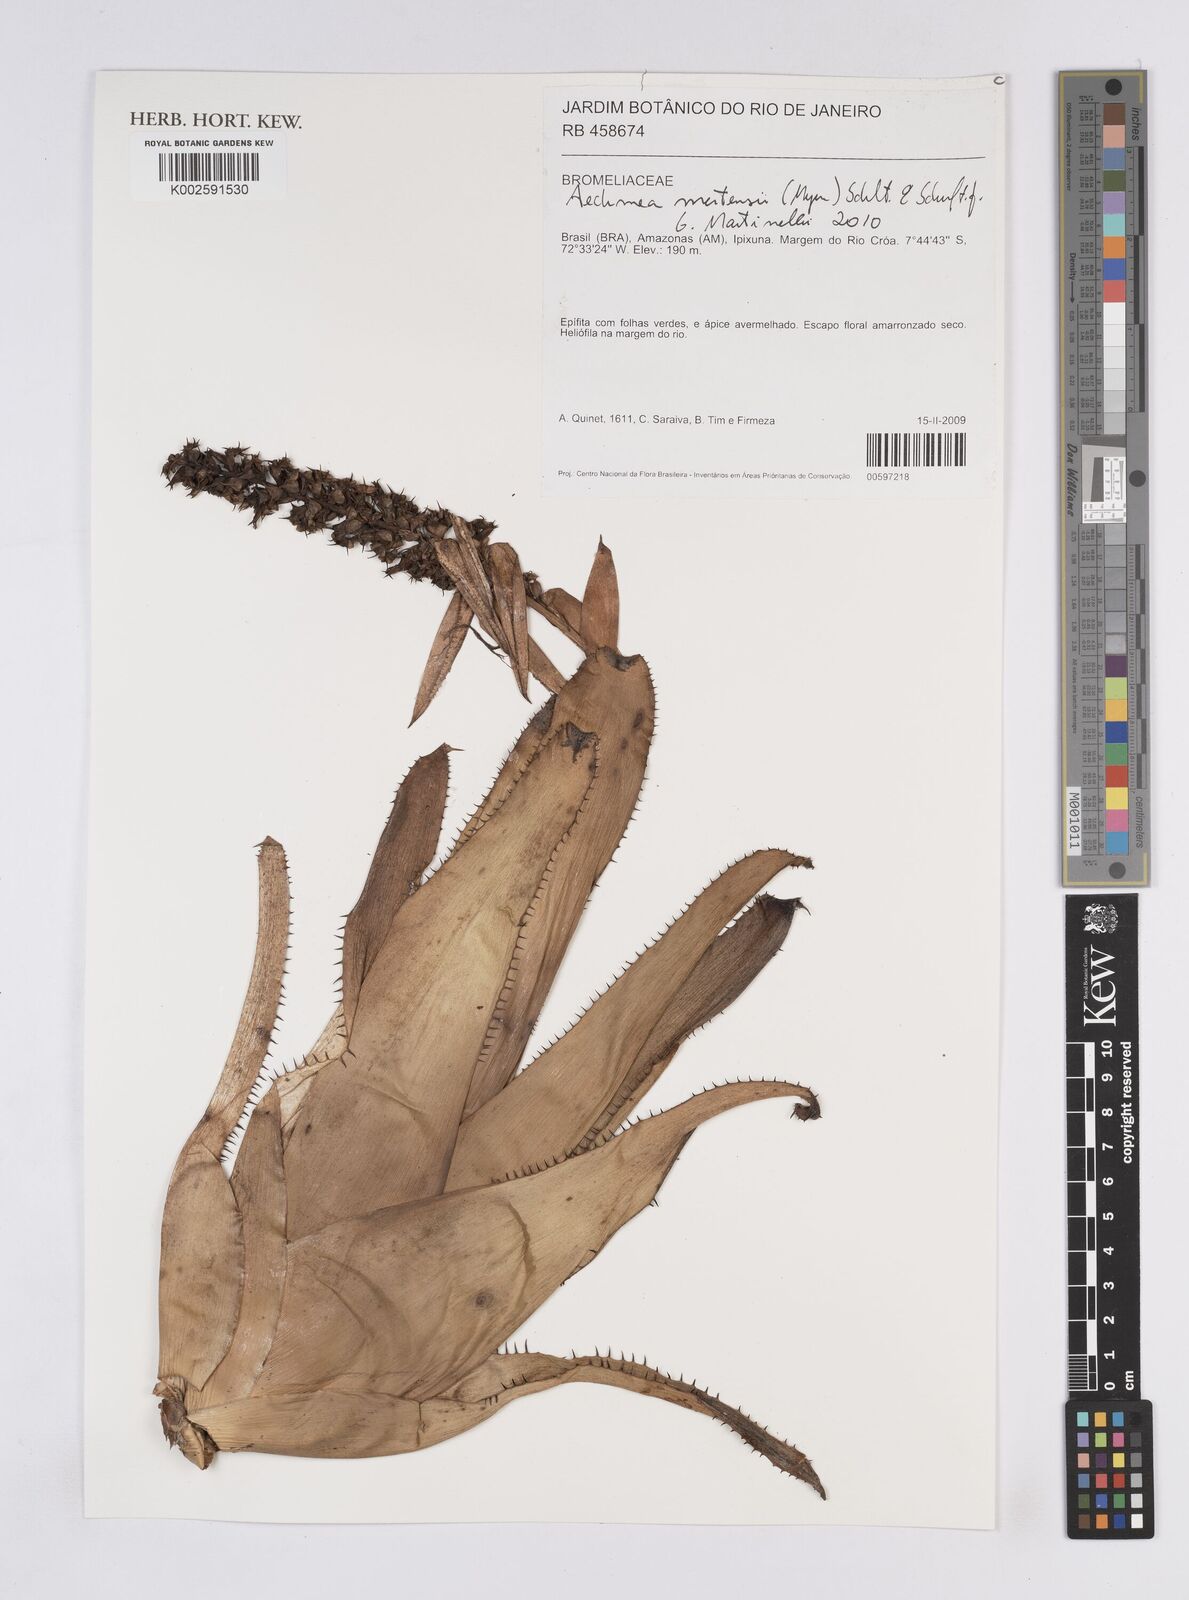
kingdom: Plantae
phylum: Tracheophyta
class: Liliopsida
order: Poales
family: Bromeliaceae
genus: Aechmea
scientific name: Aechmea mertensii
